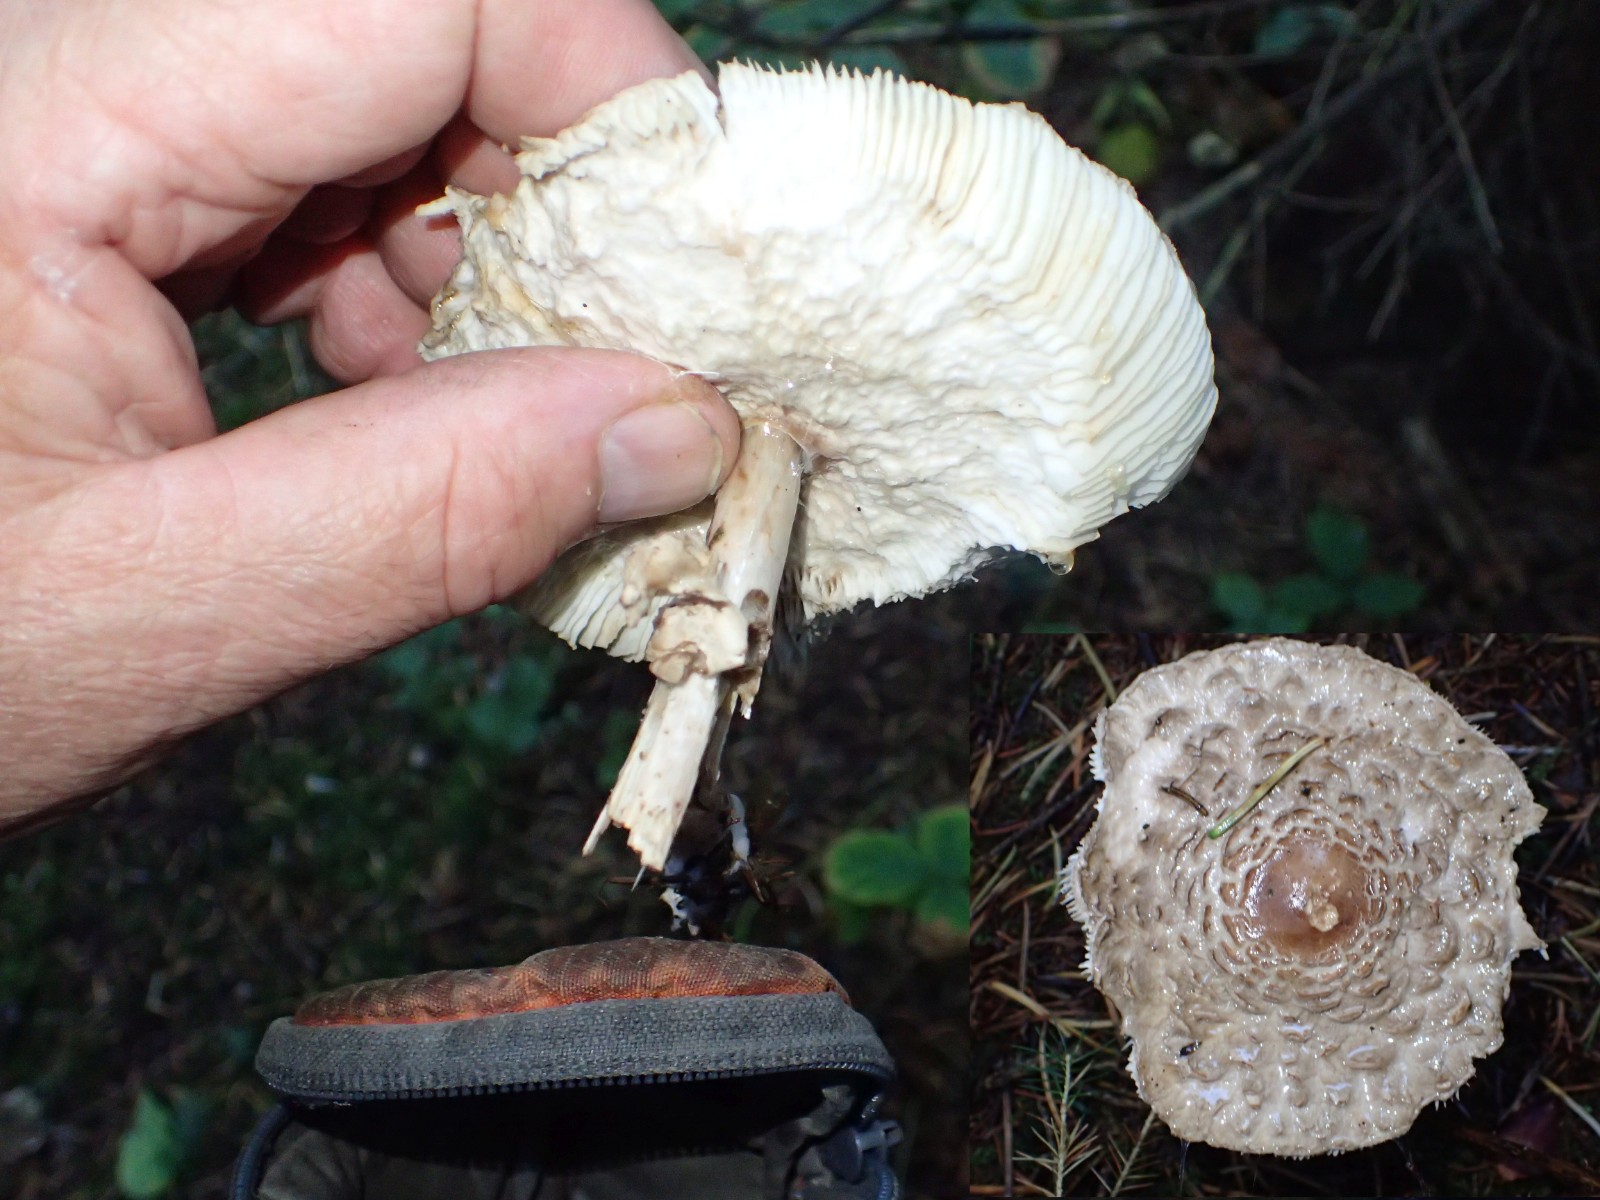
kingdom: Fungi
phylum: Basidiomycota
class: Agaricomycetes
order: Agaricales
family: Agaricaceae
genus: Chlorophyllum
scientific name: Chlorophyllum olivieri
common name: almindelig rabarberhat
